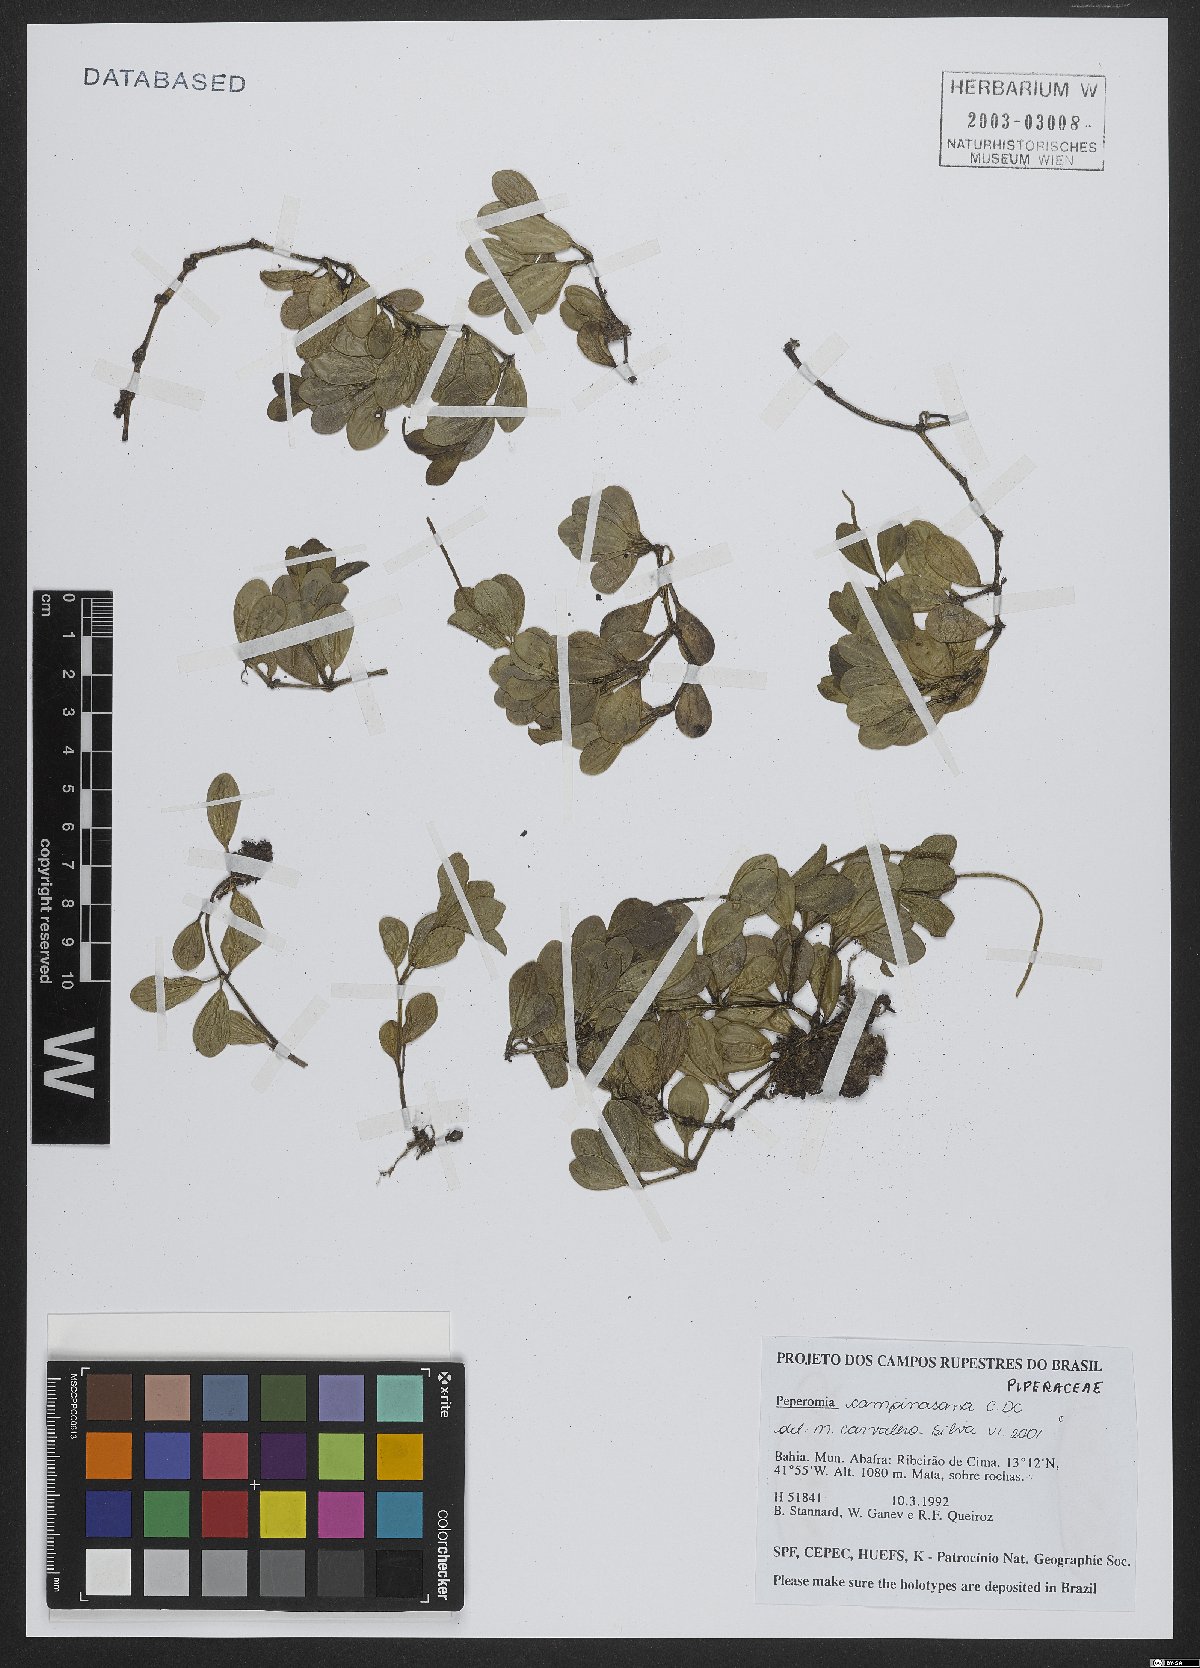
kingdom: Plantae
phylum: Tracheophyta
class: Magnoliopsida
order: Piperales
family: Piperaceae
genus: Peperomia
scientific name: Peperomia campinasana
